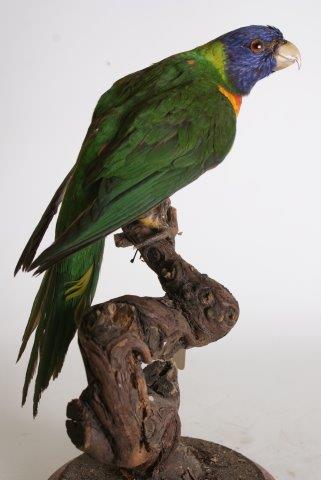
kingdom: Animalia
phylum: Chordata
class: Aves
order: Psittaciformes
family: Psittacidae
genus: Trichoglossus
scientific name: Trichoglossus haematodus
